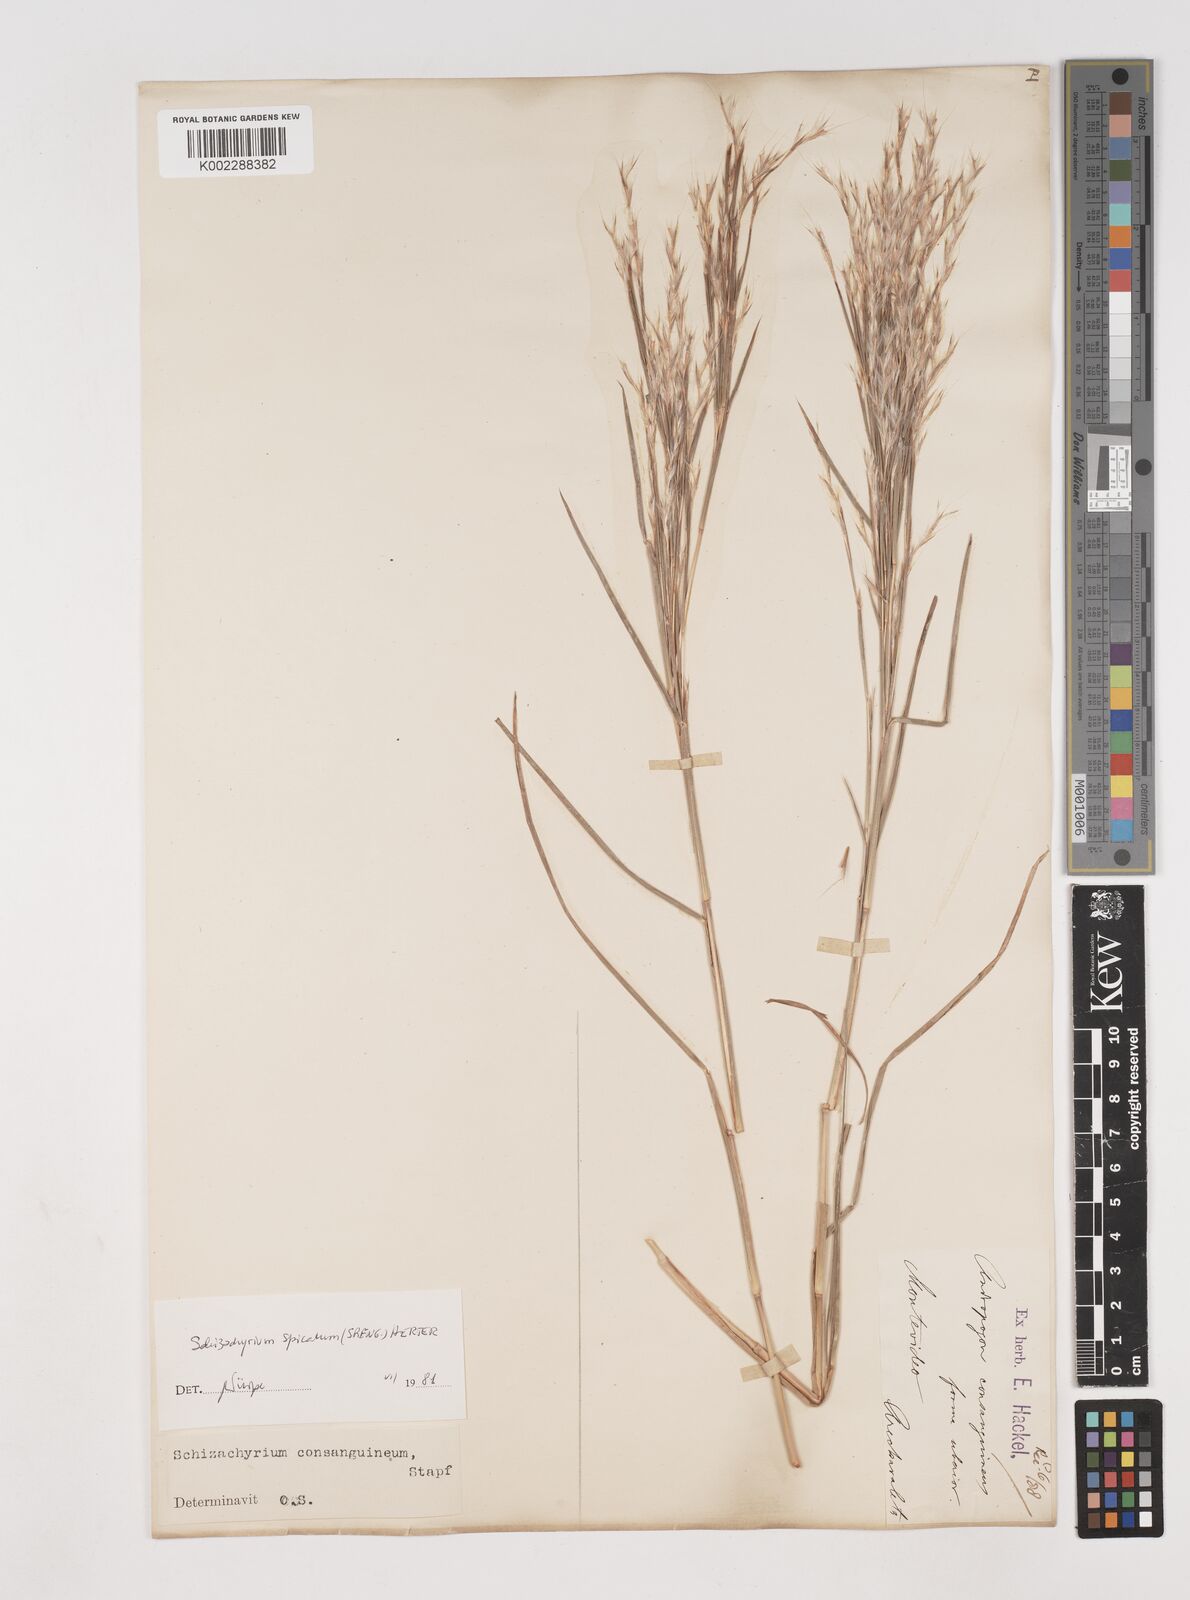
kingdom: Plantae
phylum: Tracheophyta
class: Liliopsida
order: Poales
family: Poaceae
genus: Schizachyrium
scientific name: Schizachyrium spicatum
